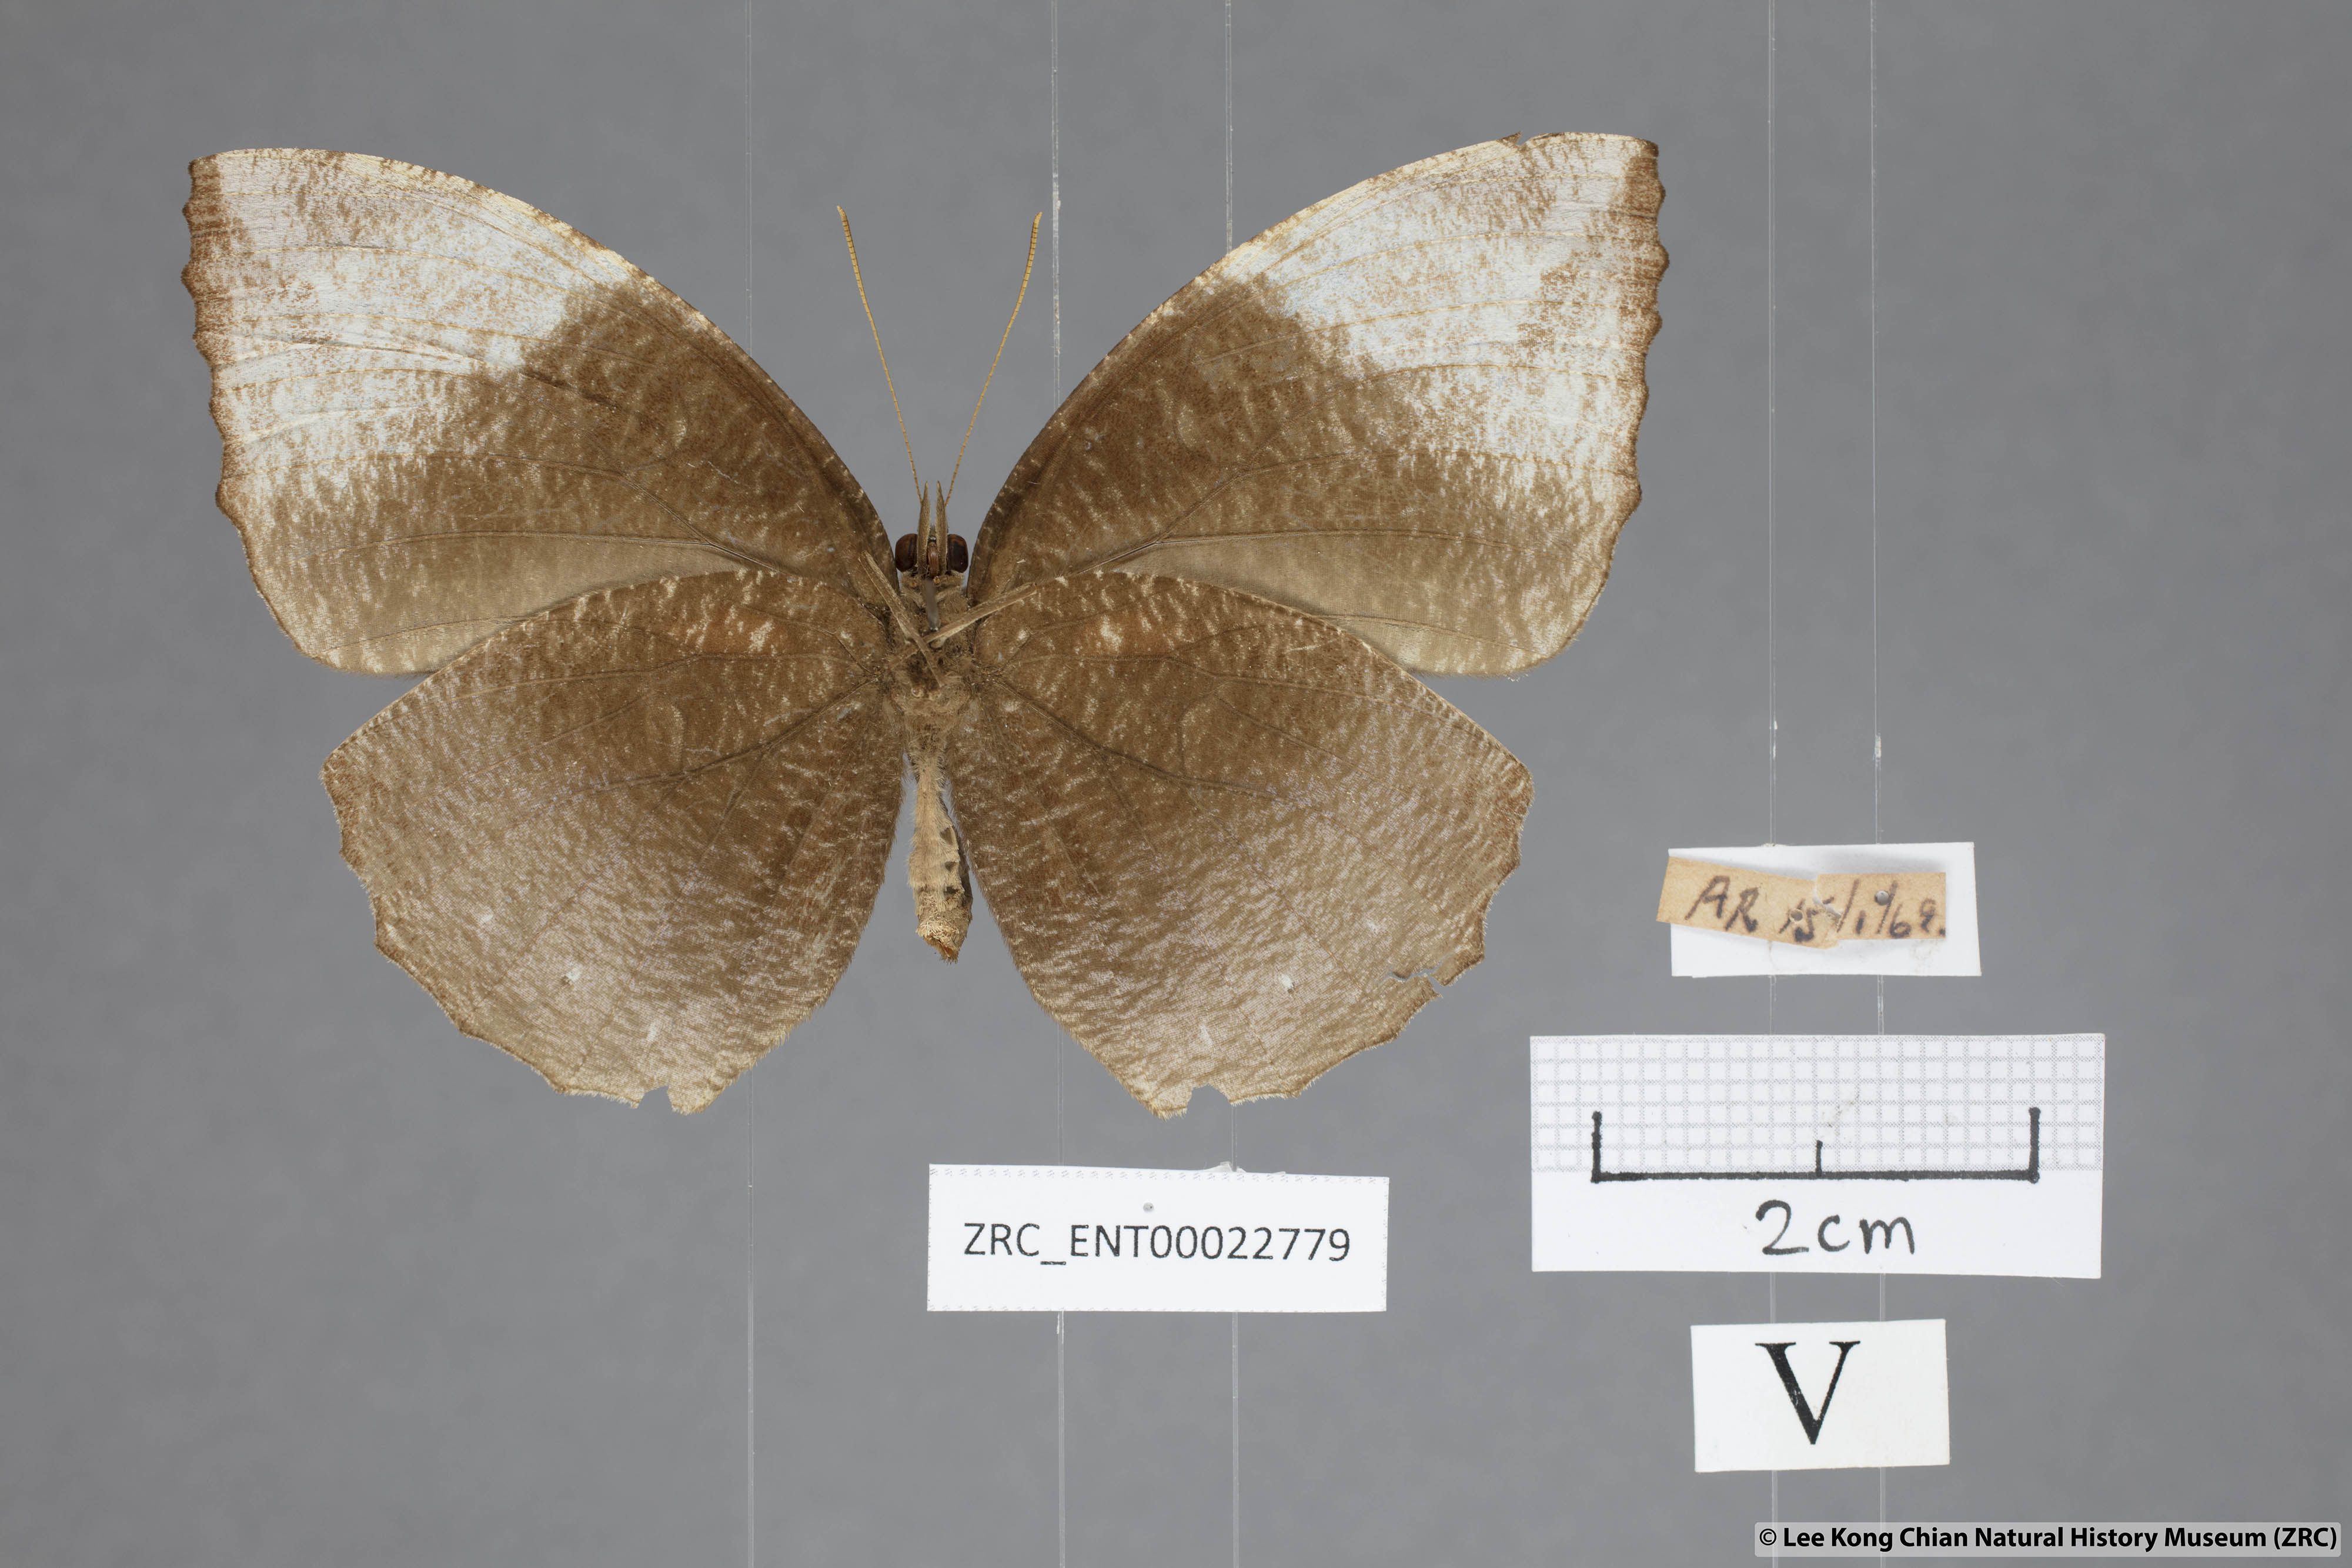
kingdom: Animalia
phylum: Arthropoda
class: Insecta
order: Lepidoptera
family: Nymphalidae
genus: Elymnias
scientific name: Elymnias penanga
